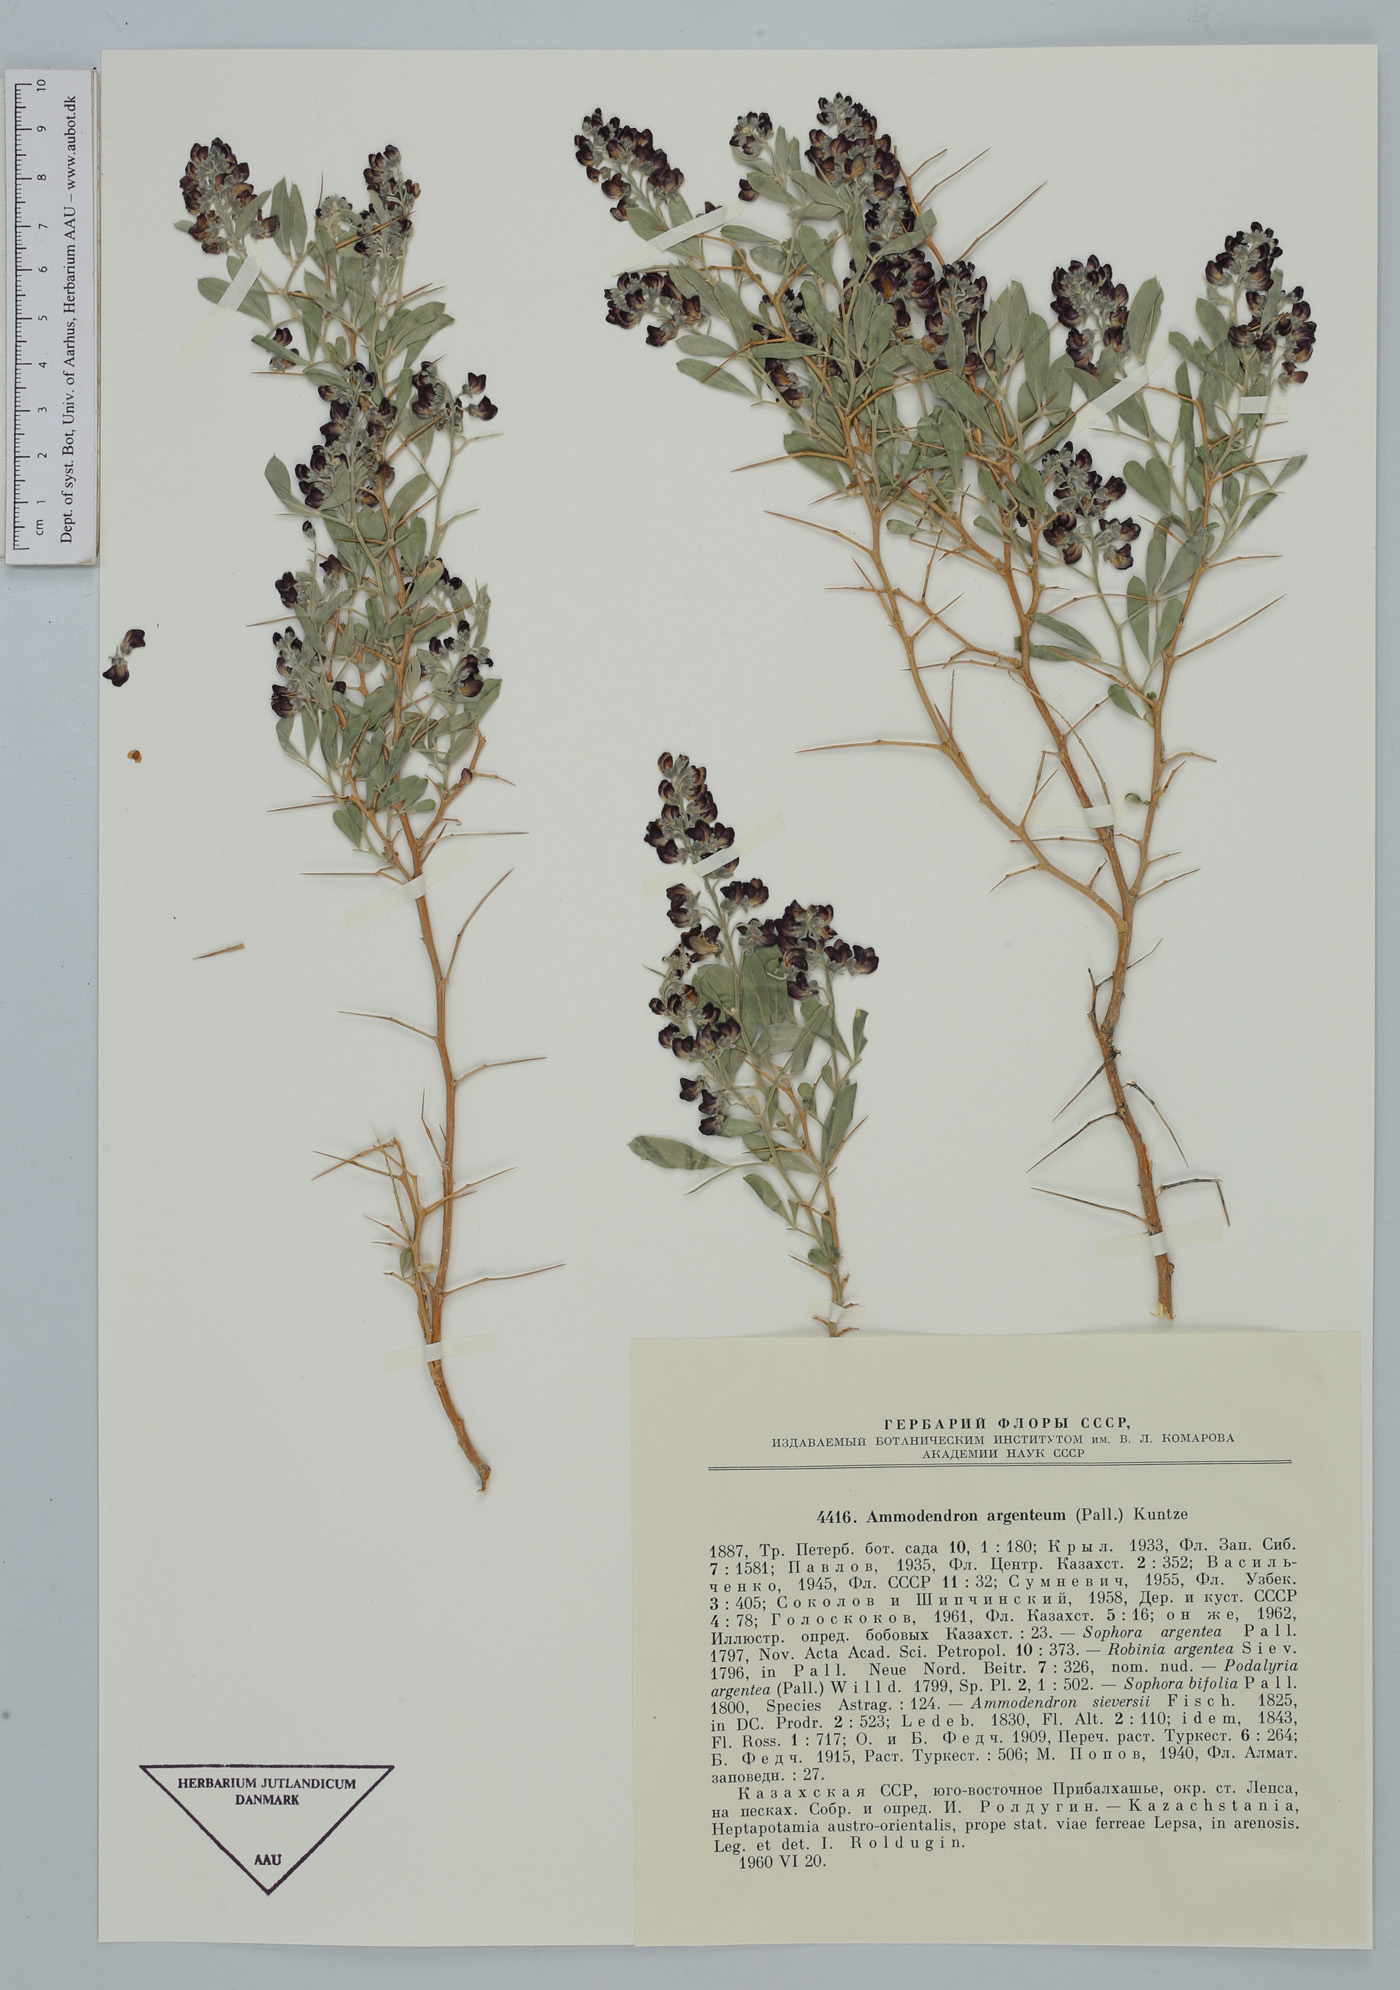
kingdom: Plantae
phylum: Tracheophyta
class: Magnoliopsida
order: Fabales
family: Fabaceae
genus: Ammodendron
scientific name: Ammodendron bifolium
